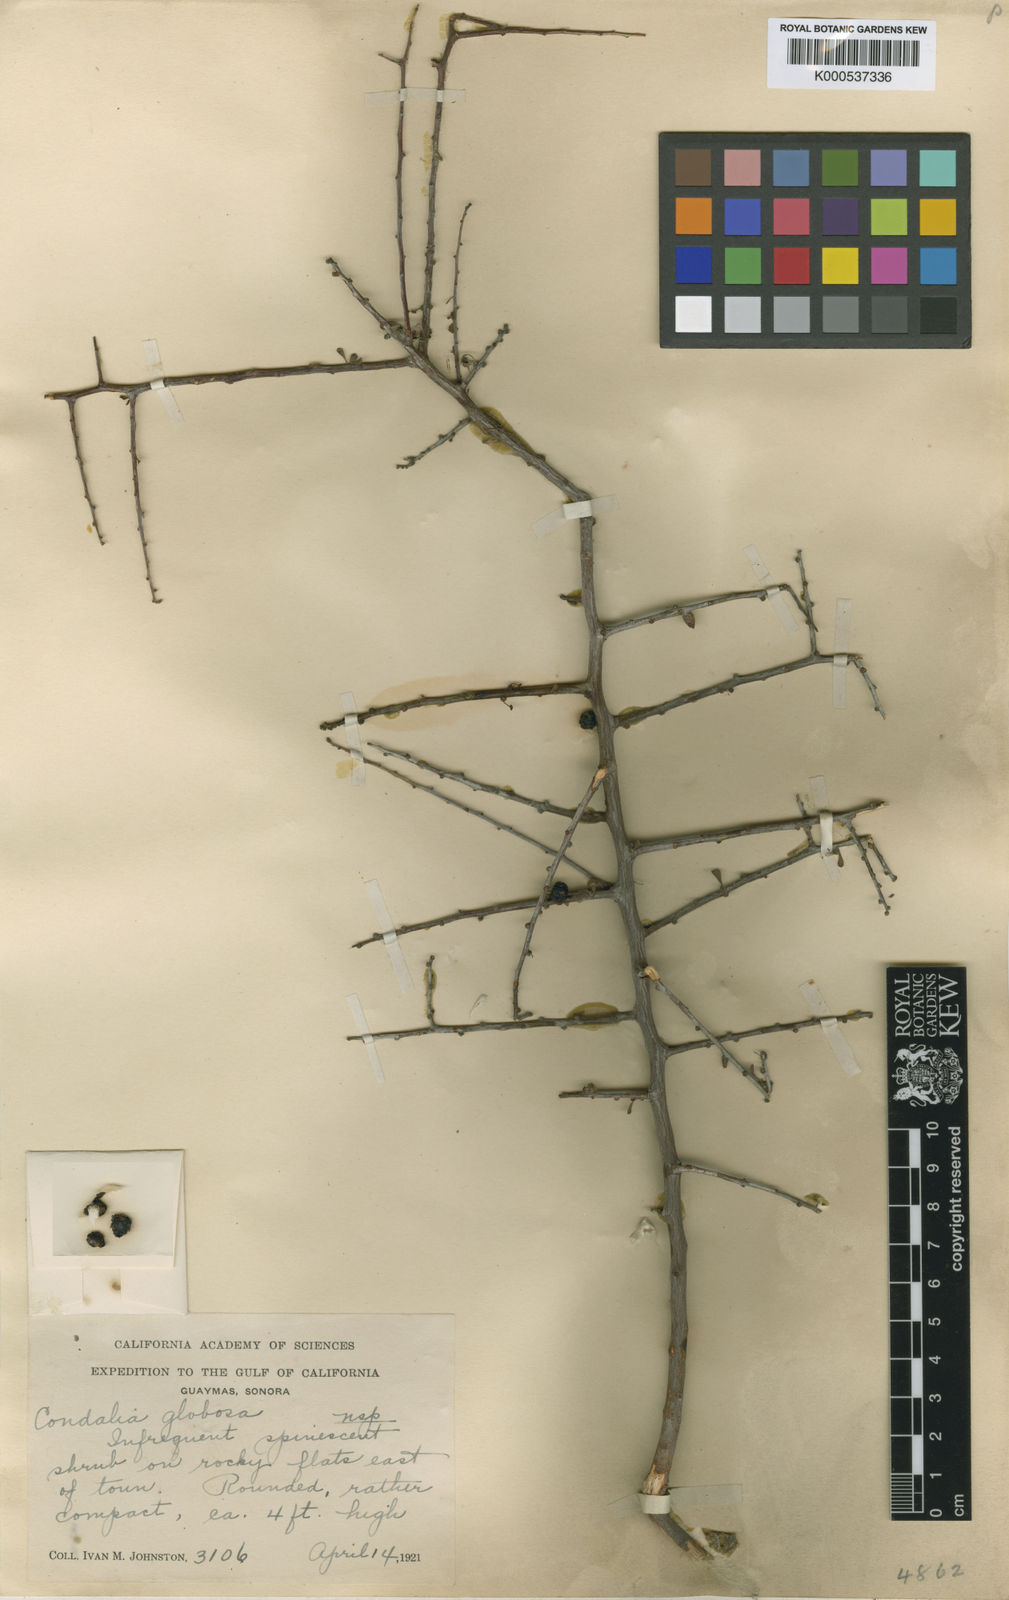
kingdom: Plantae
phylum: Tracheophyta
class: Magnoliopsida
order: Rosales
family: Rhamnaceae
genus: Condalia
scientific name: Condalia globosa
